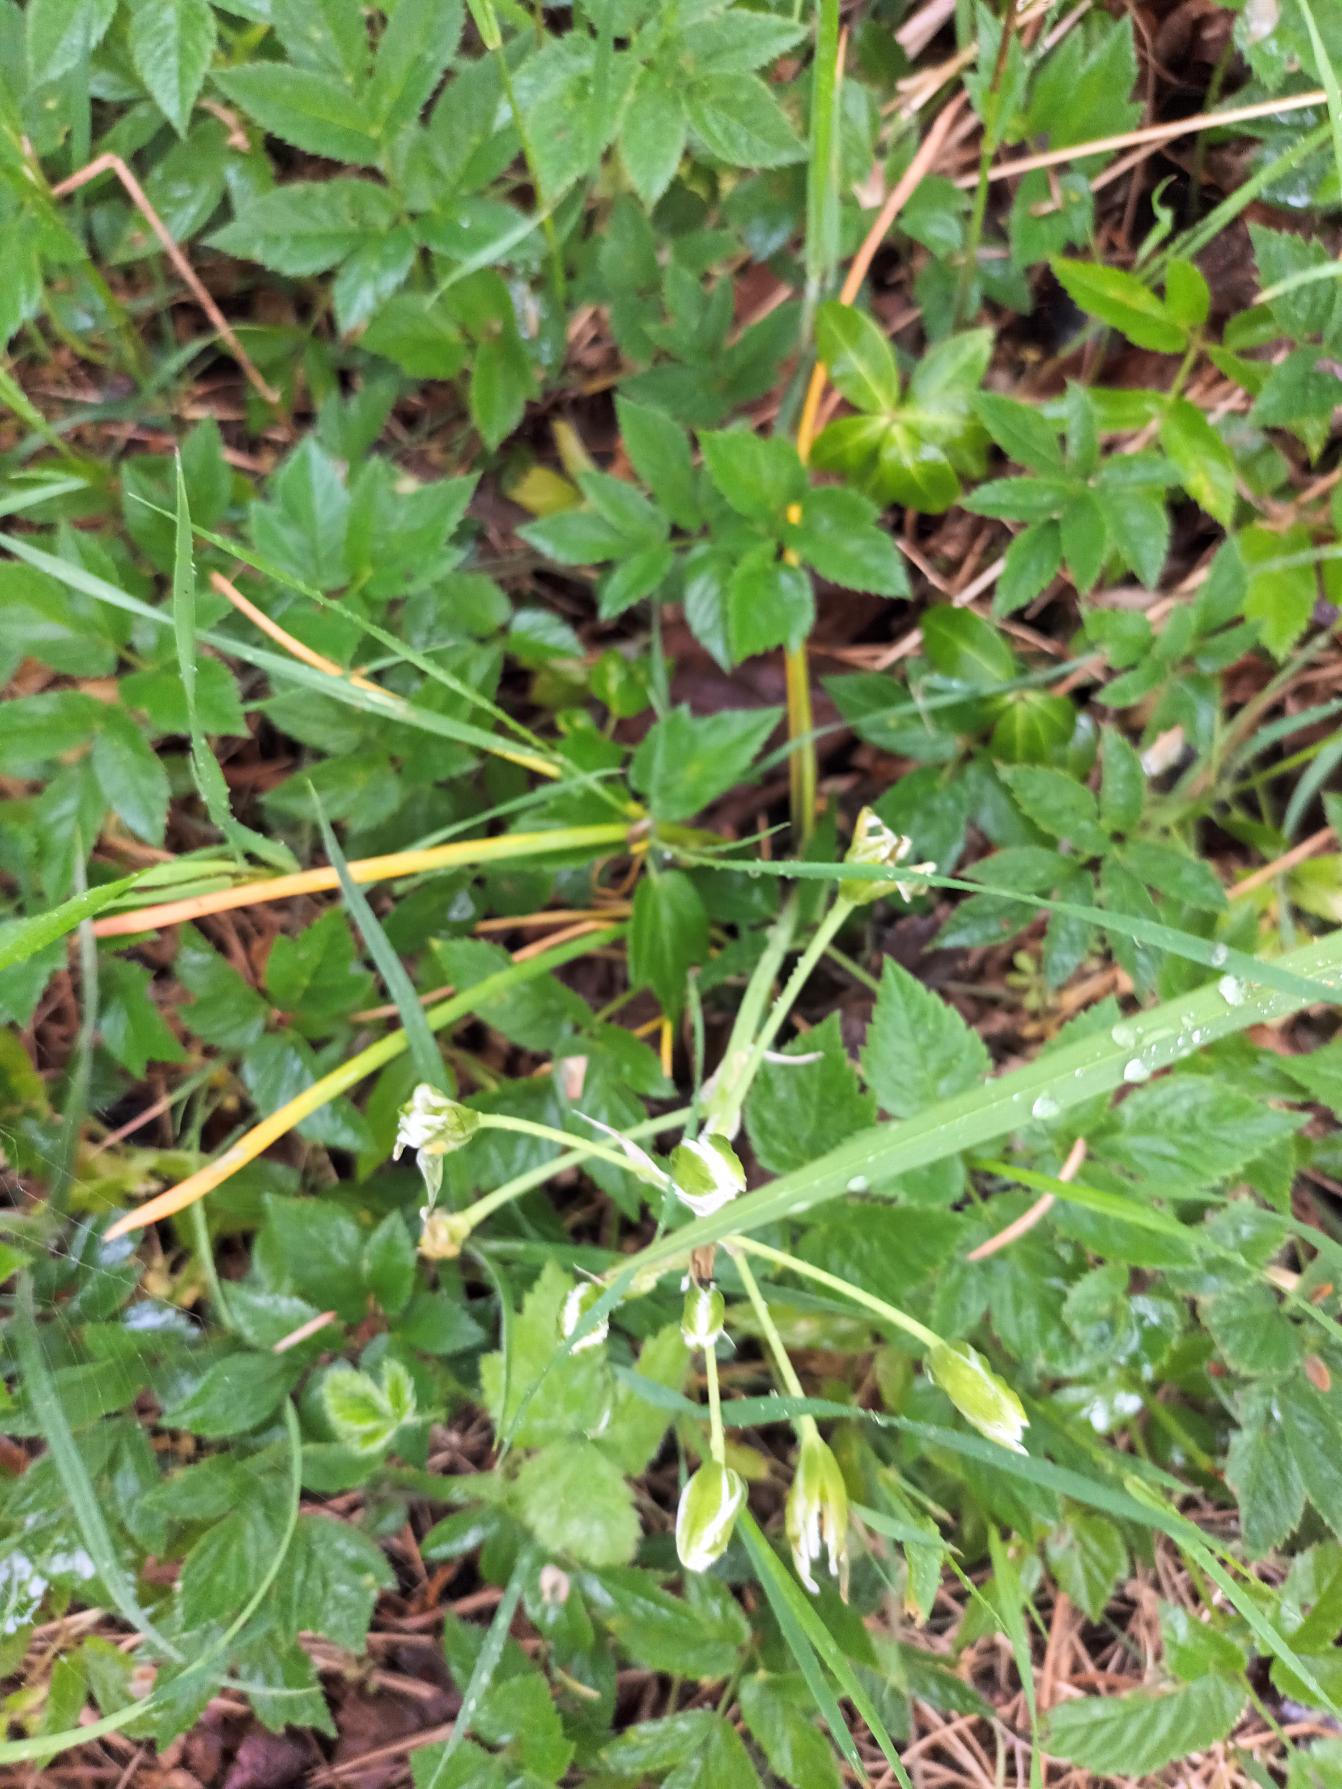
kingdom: Plantae
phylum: Tracheophyta
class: Liliopsida
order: Asparagales
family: Asparagaceae
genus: Ornithogalum
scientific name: Ornithogalum divergens
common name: Udspærret fuglemælk
